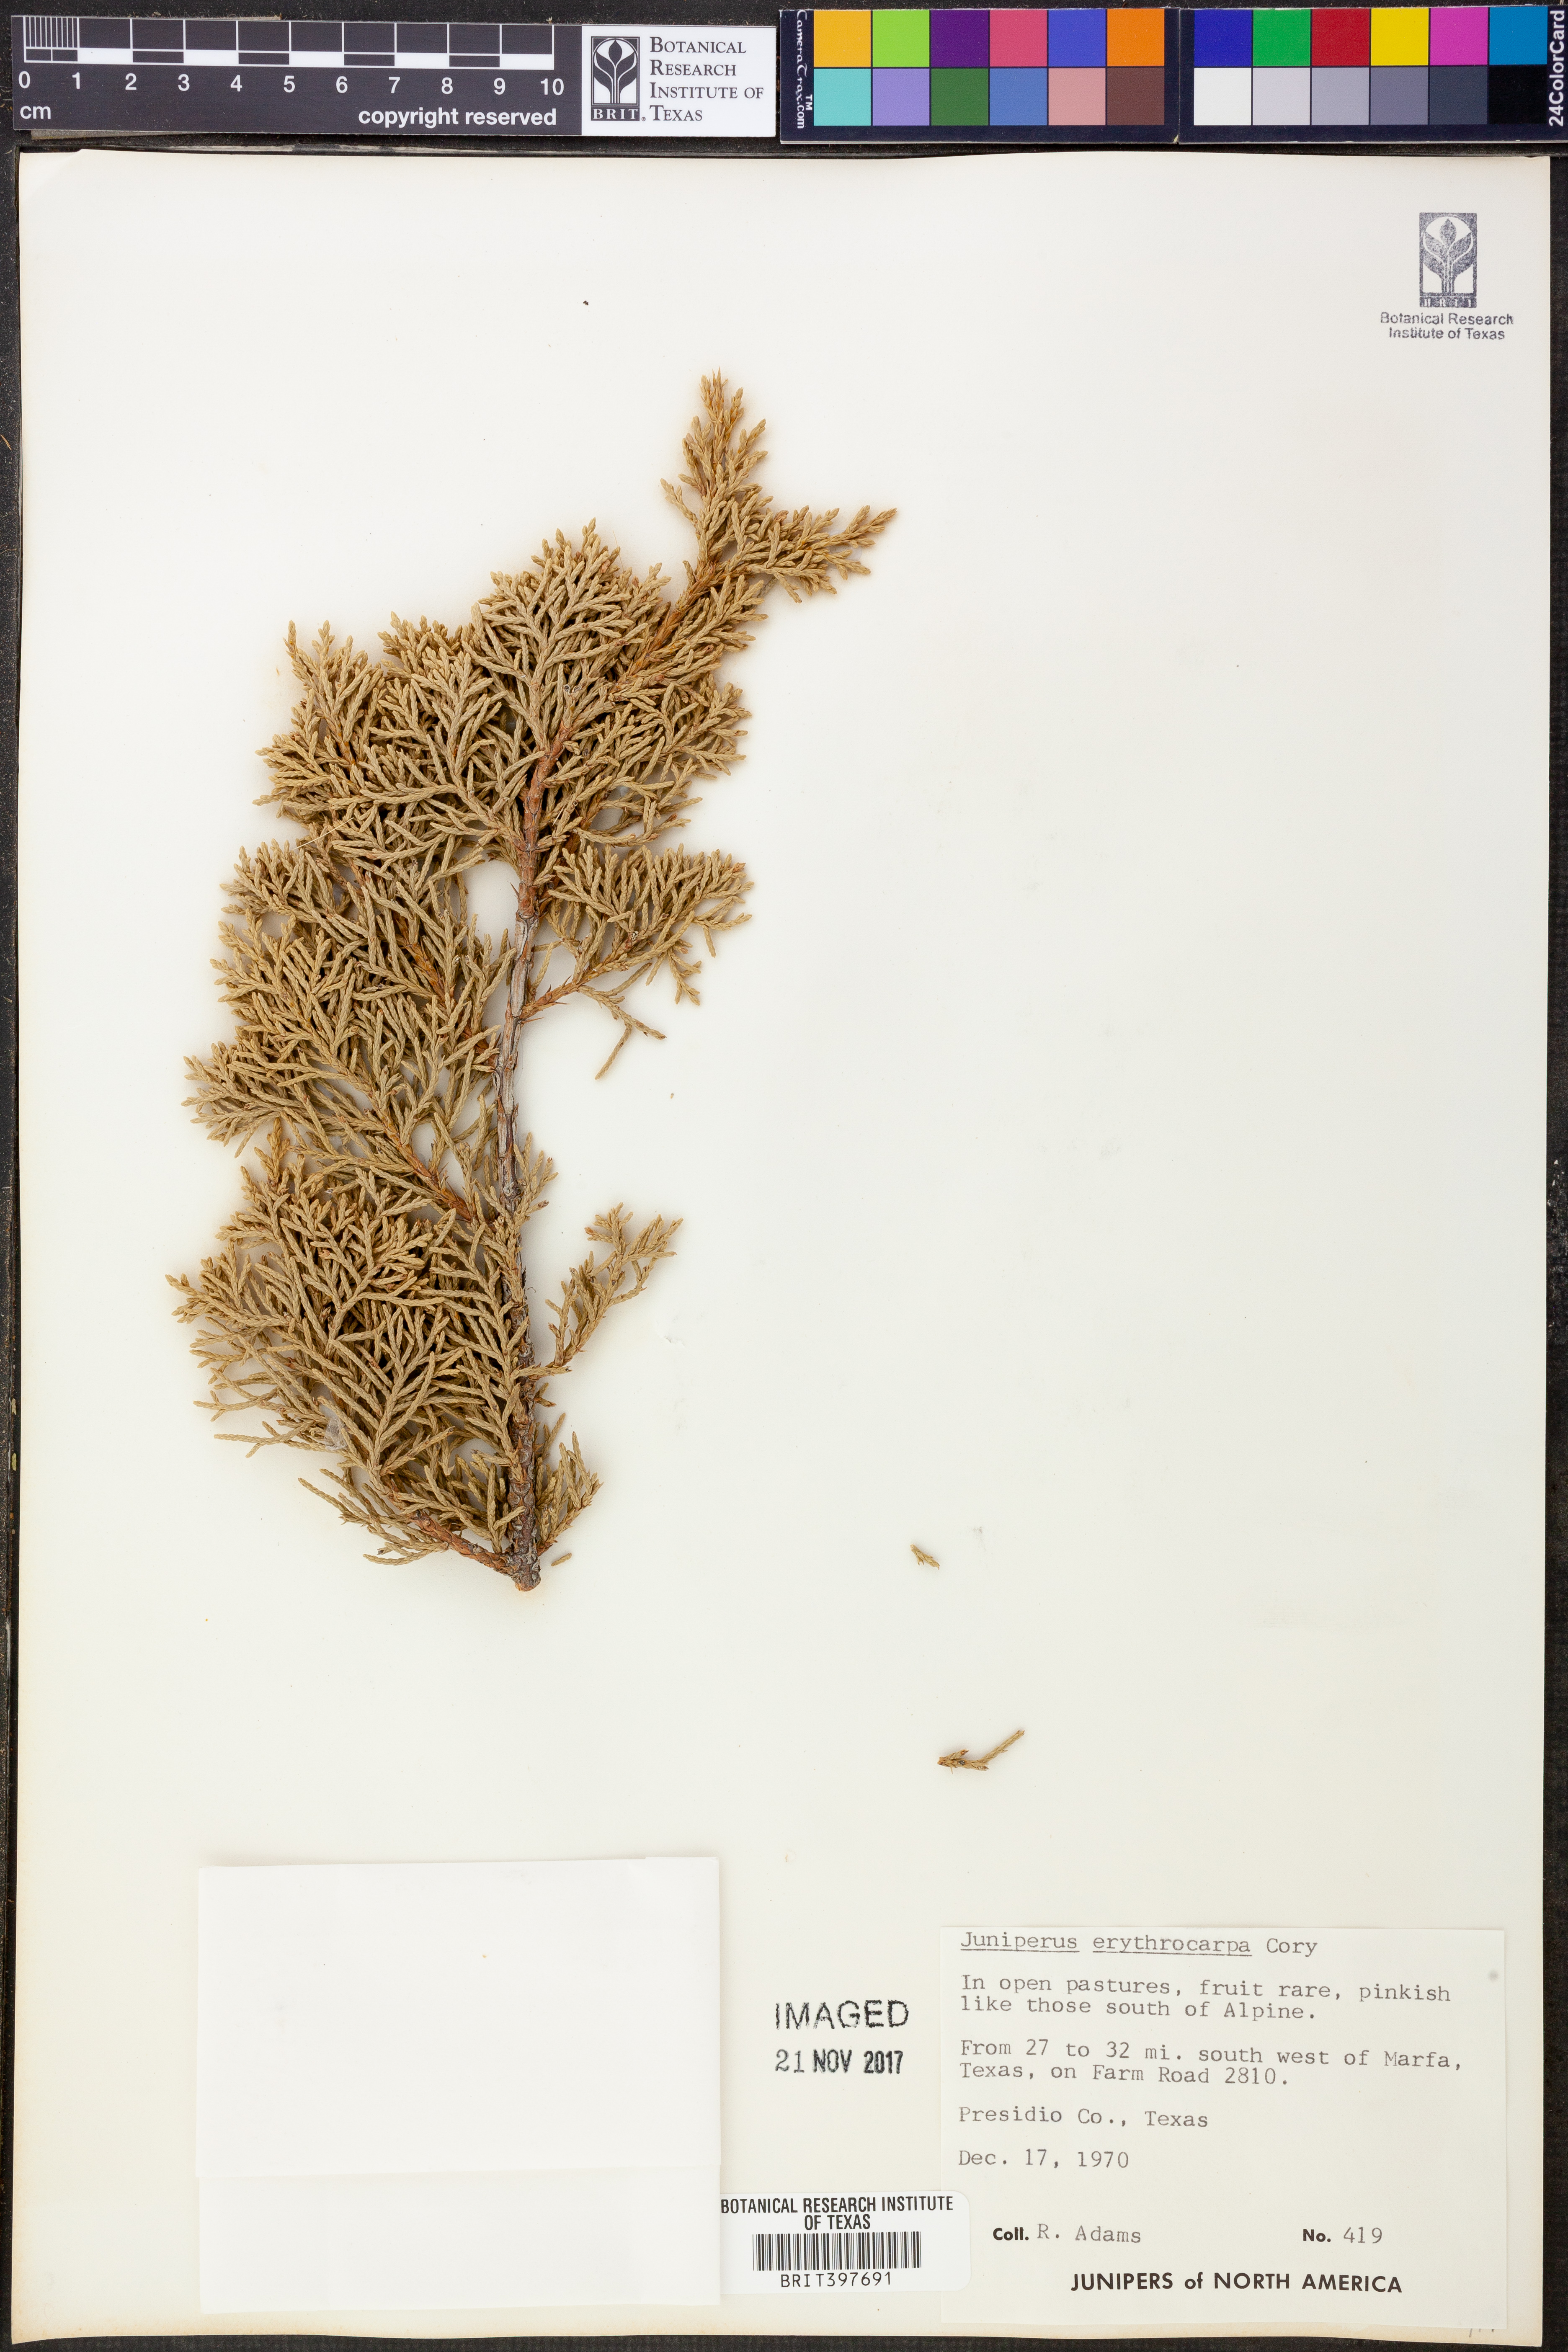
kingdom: Plantae
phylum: Tracheophyta
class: Pinopsida
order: Pinales
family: Cupressaceae
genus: Juniperus
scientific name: Juniperus pinchotii
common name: Pinchot juniper
